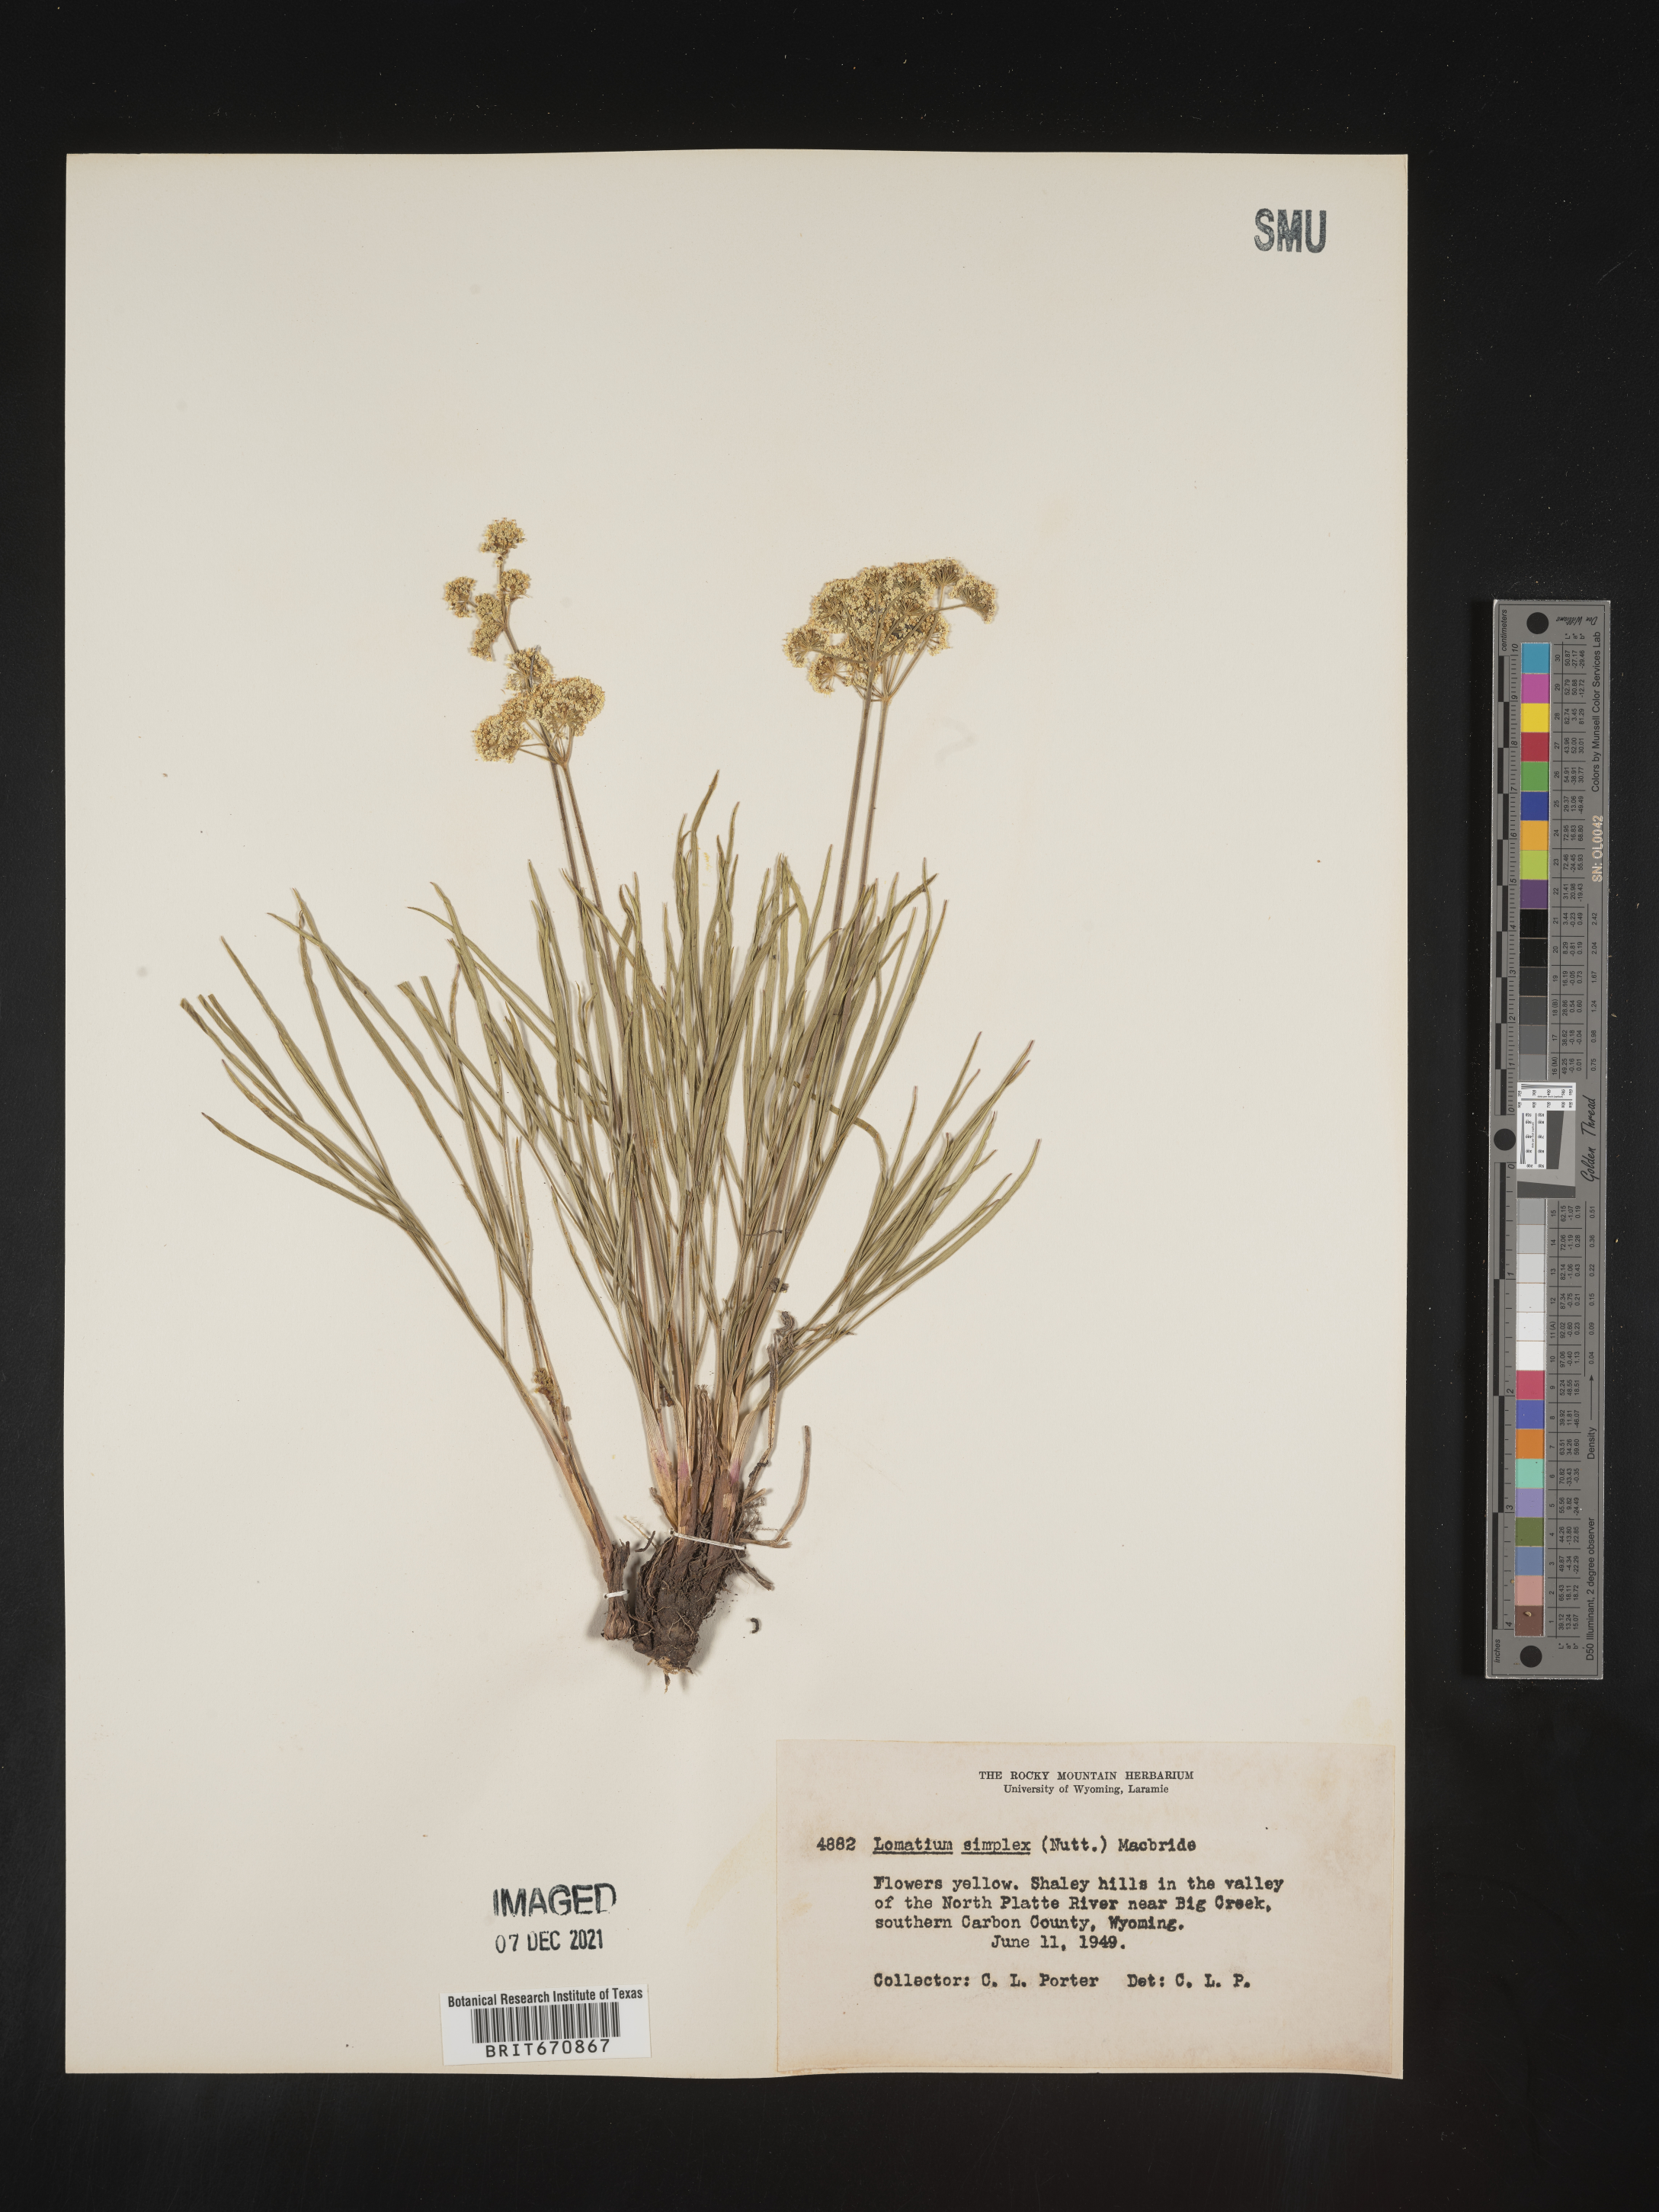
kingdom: Plantae
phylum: Tracheophyta
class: Magnoliopsida
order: Apiales
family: Apiaceae
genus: Lomatium
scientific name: Lomatium simplex
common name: Great basin biscuitroot
